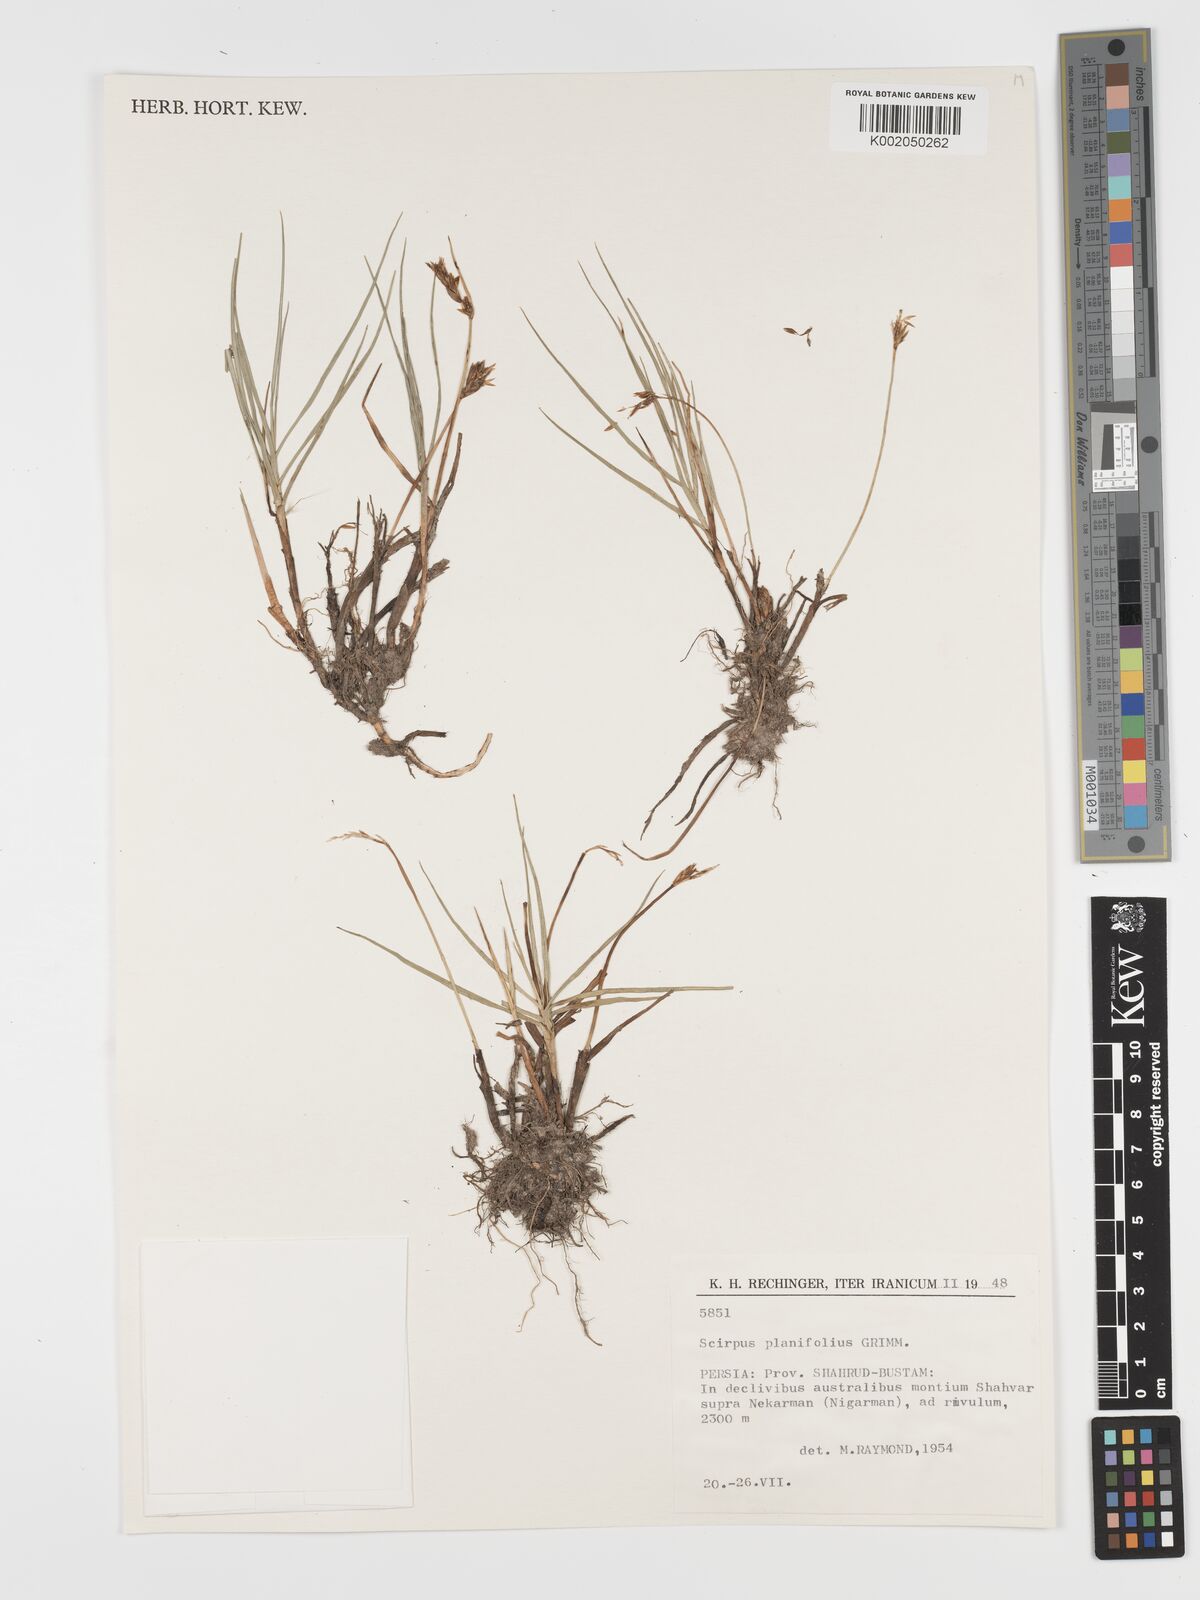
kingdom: Plantae
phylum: Tracheophyta
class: Liliopsida
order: Poales
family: Cyperaceae
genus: Blysmus
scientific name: Blysmus compressus
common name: Flat-sedge
